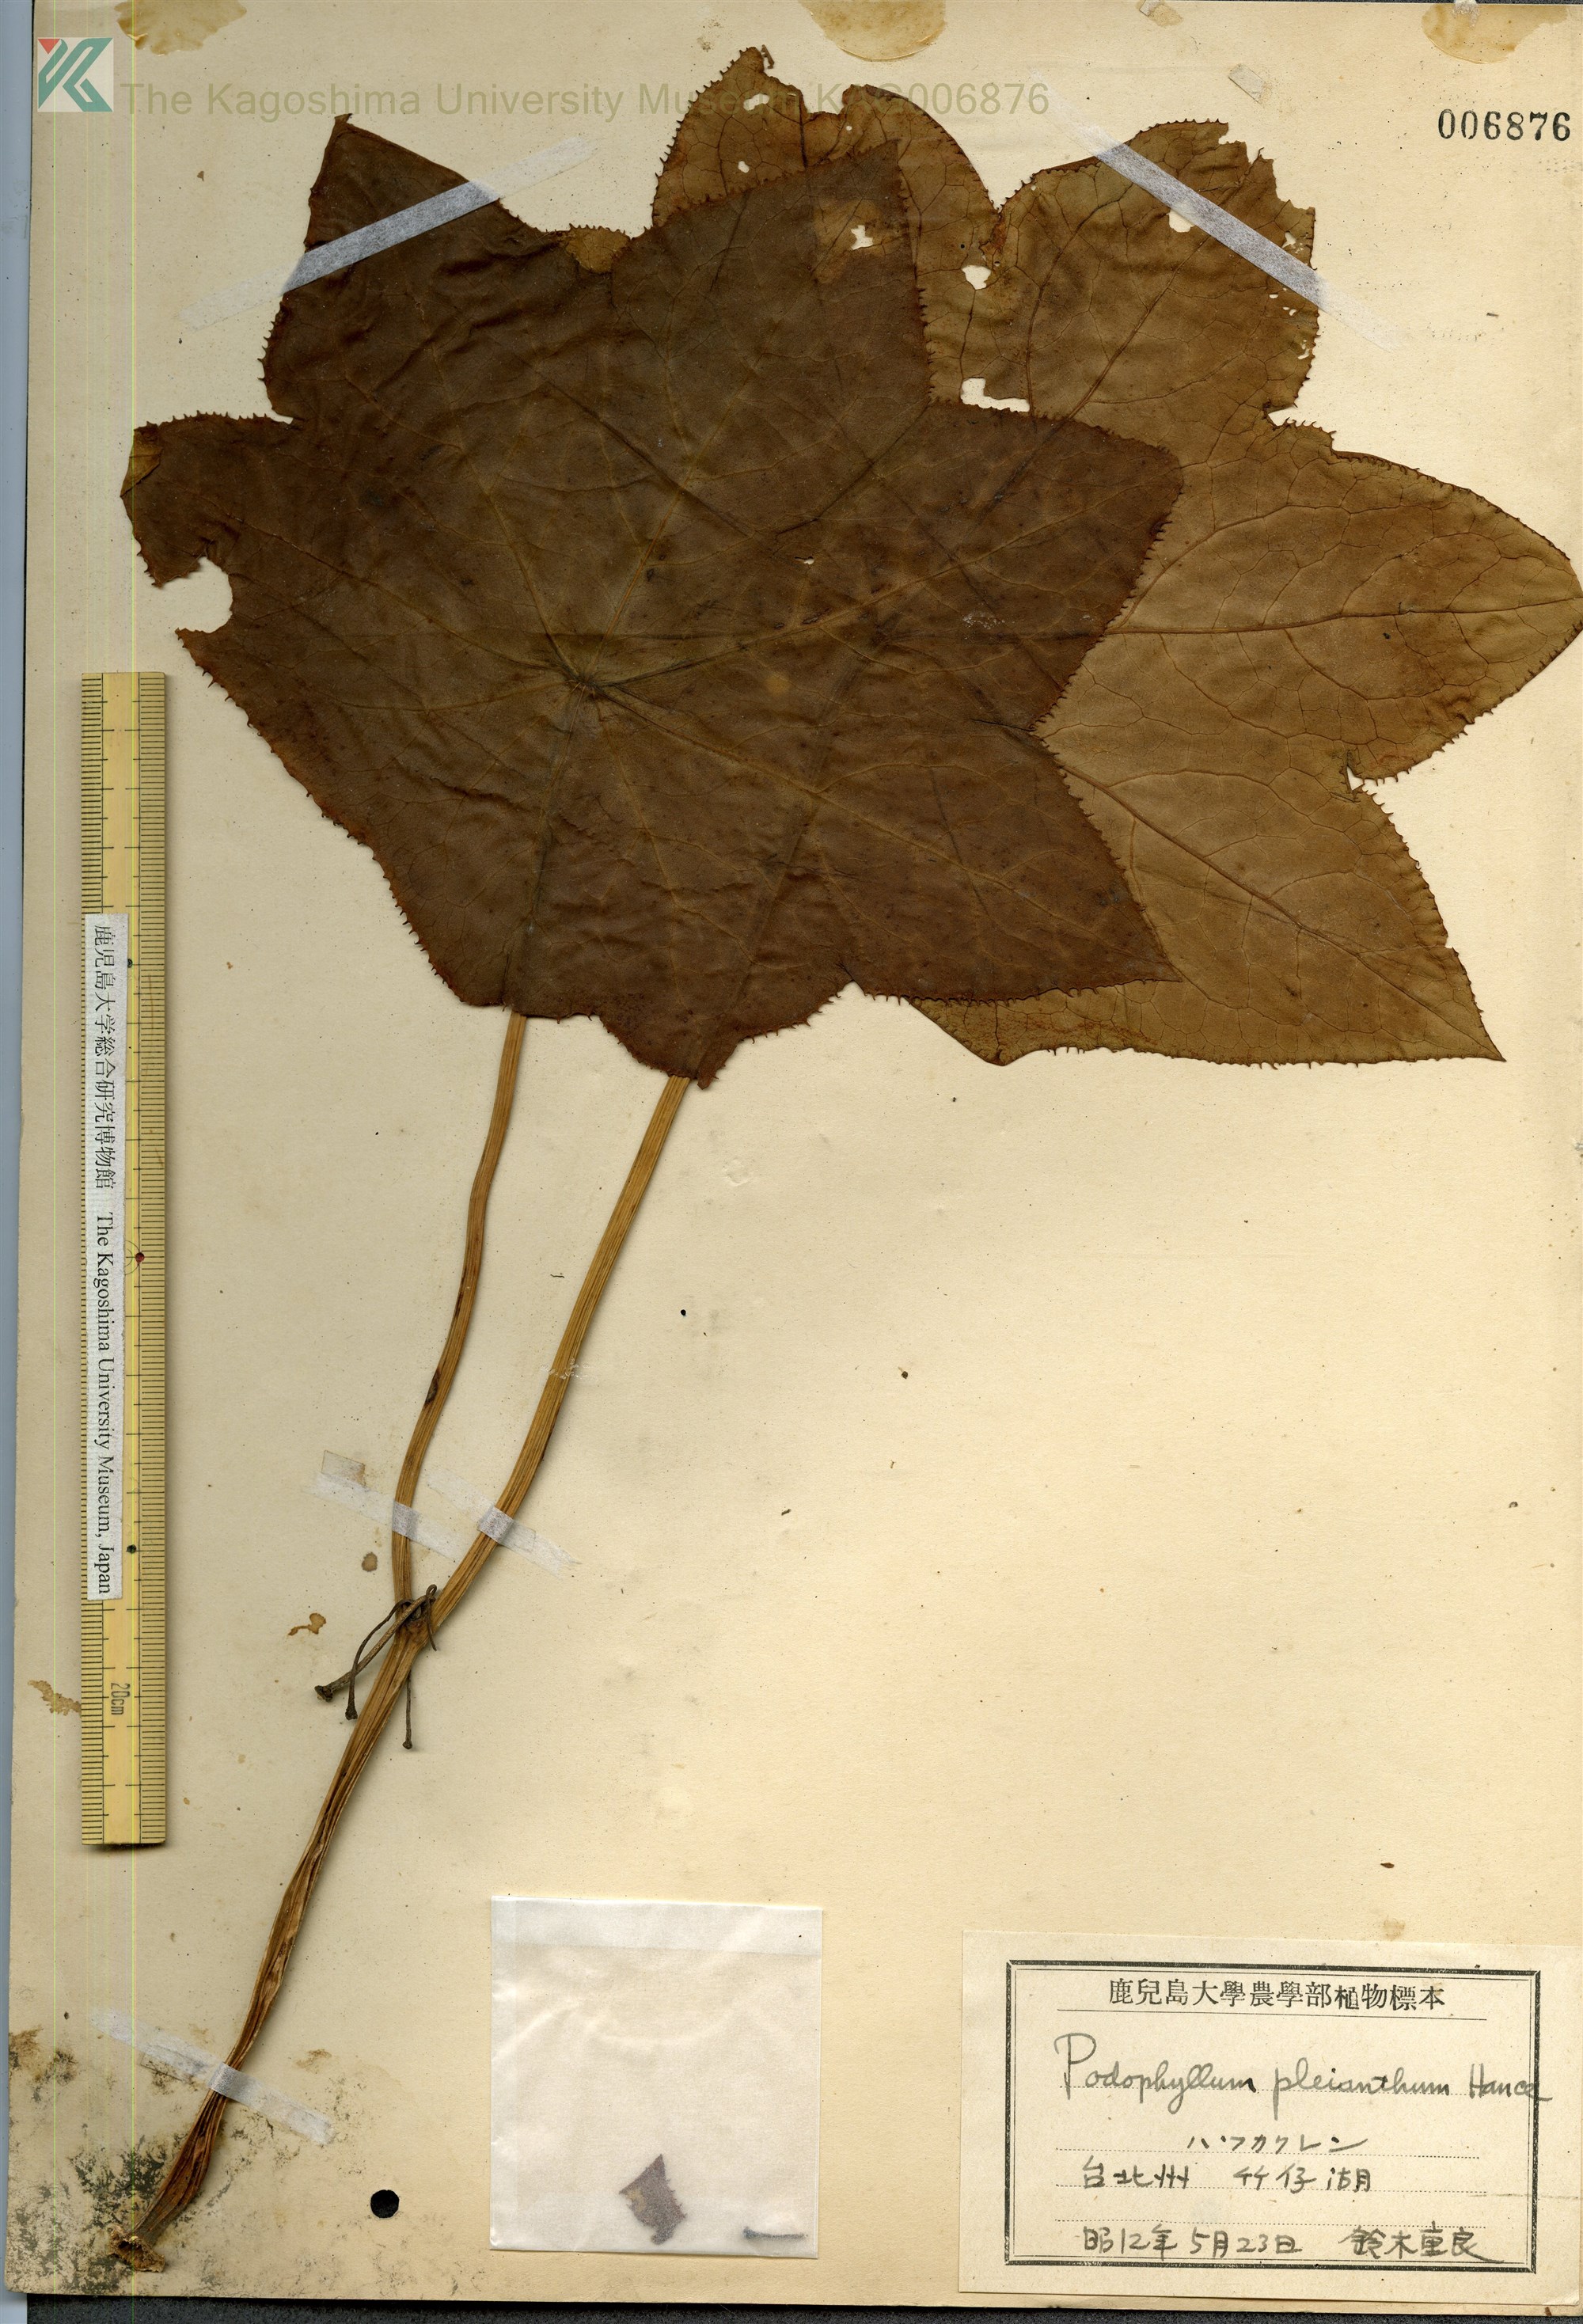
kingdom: Plantae
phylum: Tracheophyta
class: Magnoliopsida
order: Ranunculales
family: Berberidaceae
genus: Dysosma
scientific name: Dysosma pleiantha
